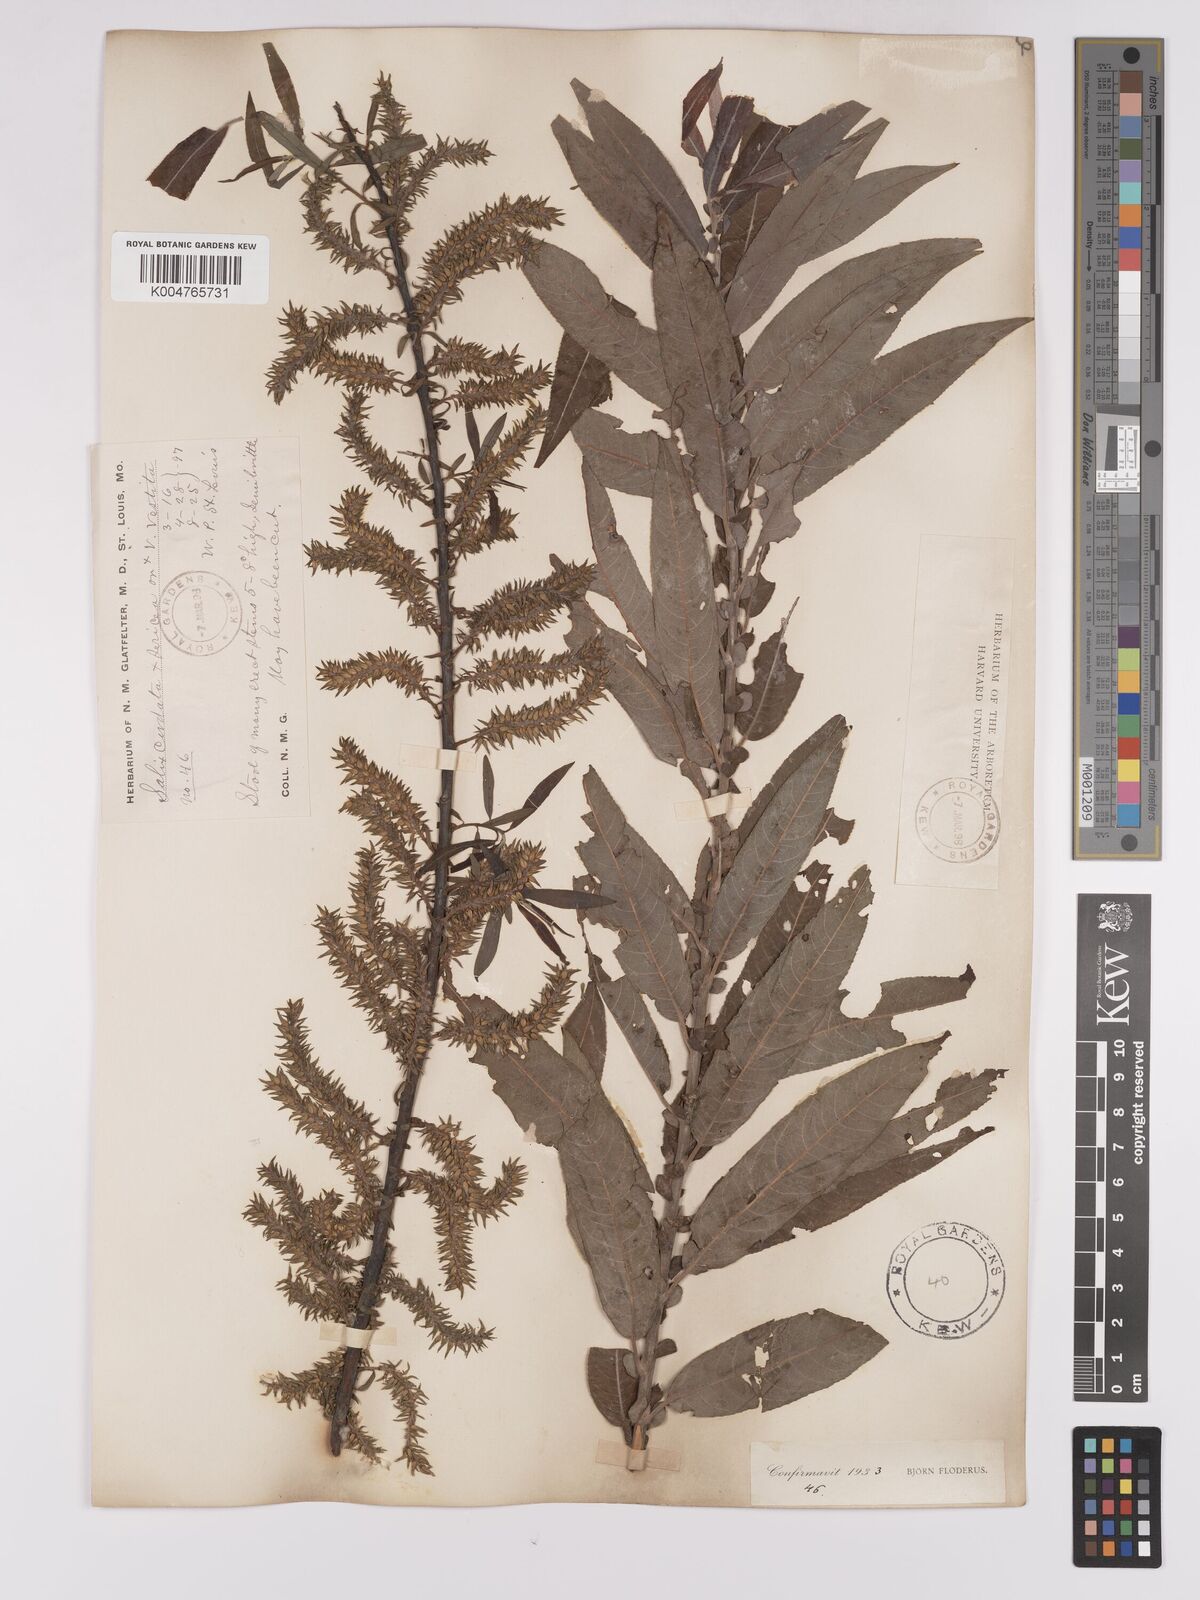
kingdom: Plantae
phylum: Tracheophyta
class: Magnoliopsida
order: Malpighiales
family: Salicaceae
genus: Salix
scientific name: Salix
